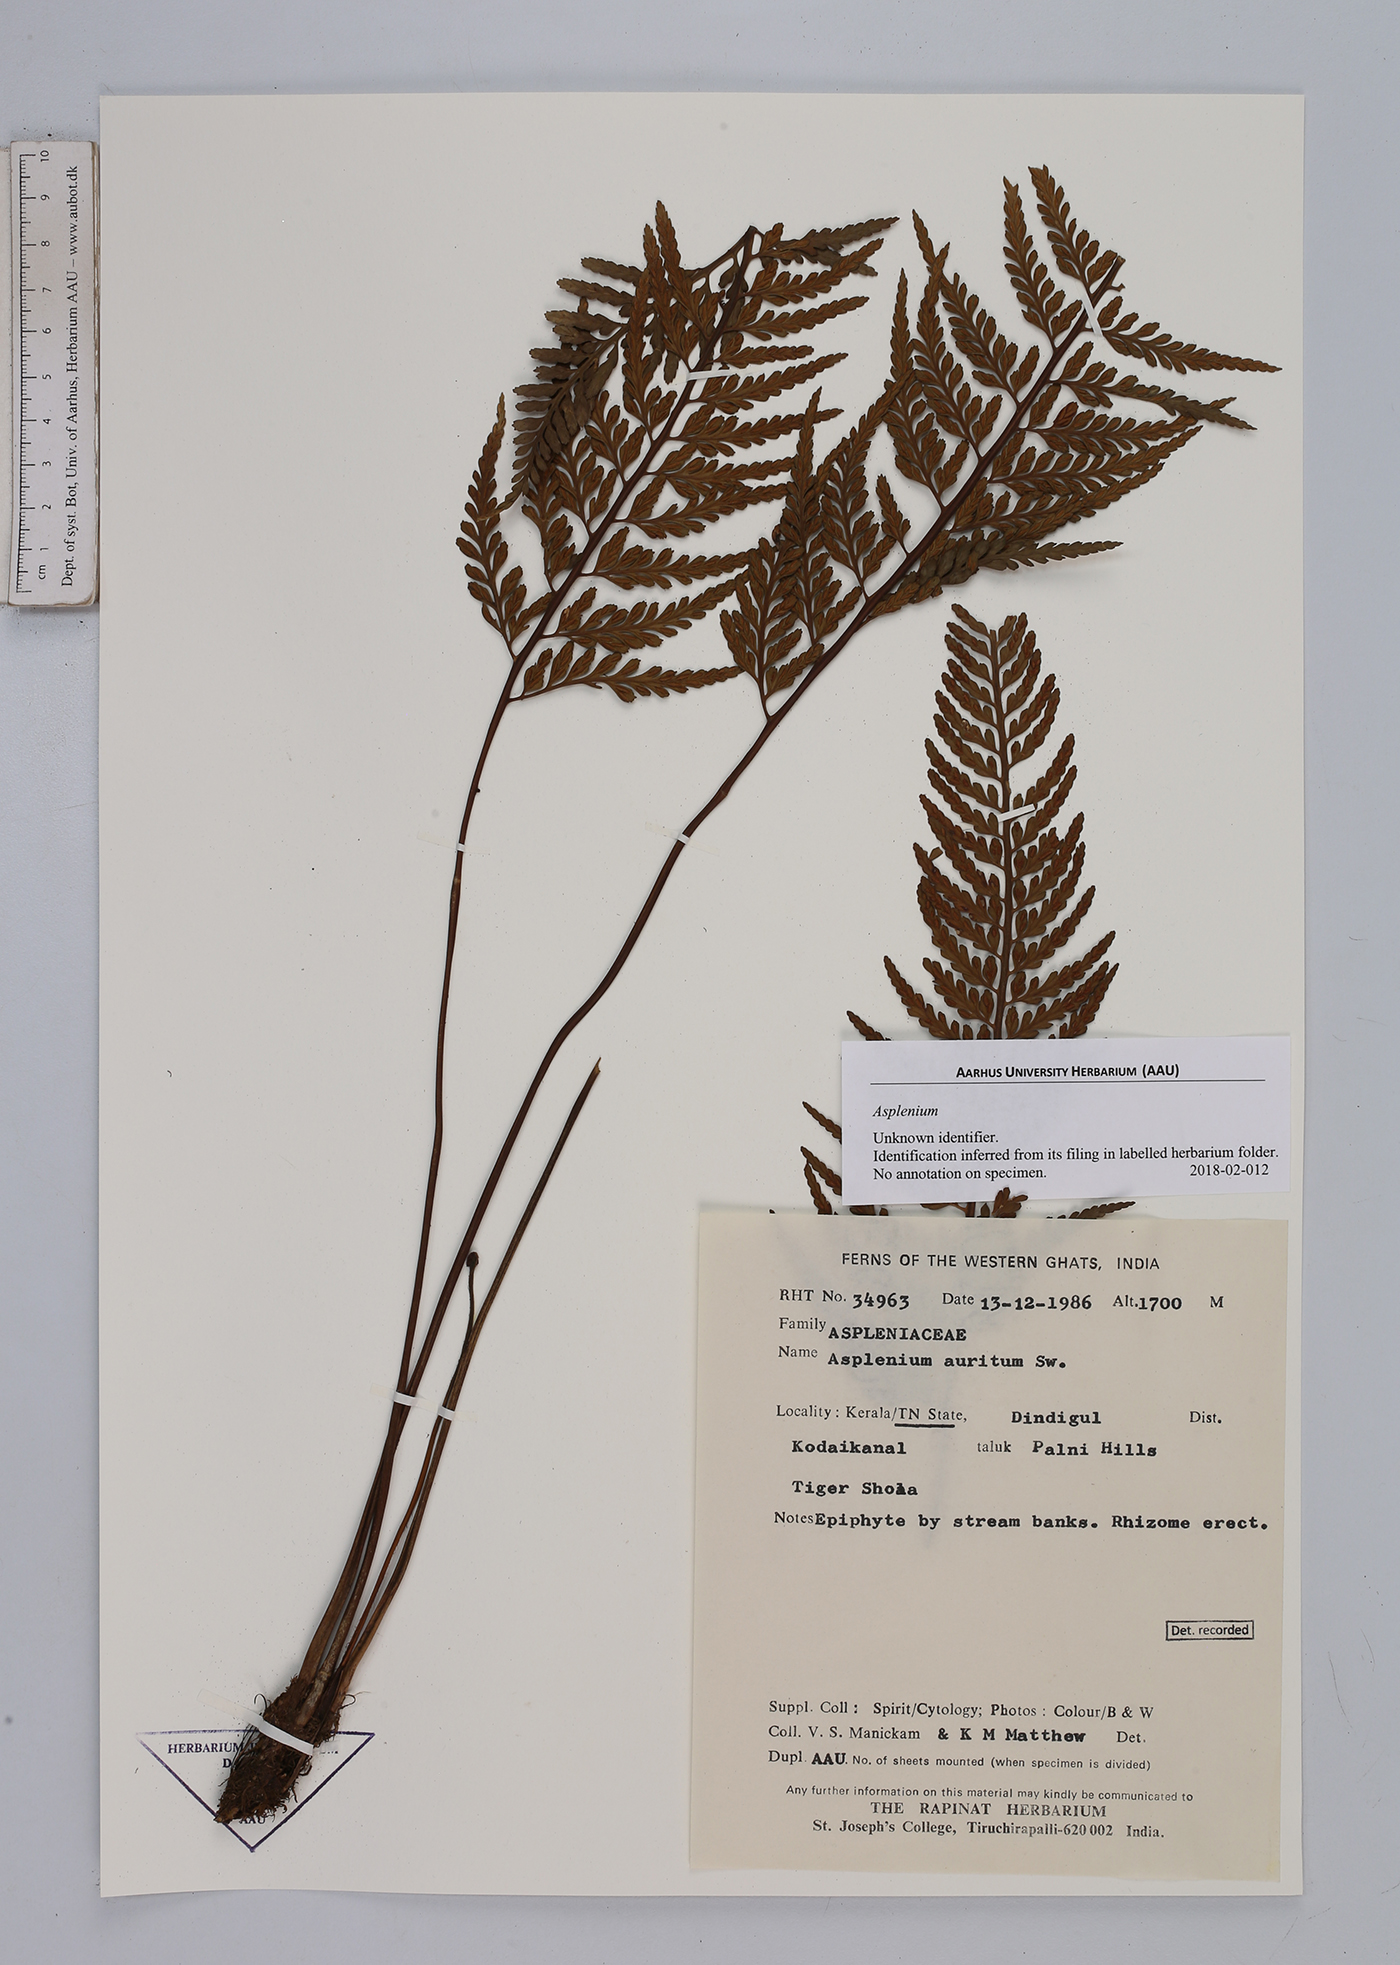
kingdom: Plantae
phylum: Tracheophyta
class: Polypodiopsida
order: Polypodiales
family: Aspleniaceae
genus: Asplenium
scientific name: Asplenium
